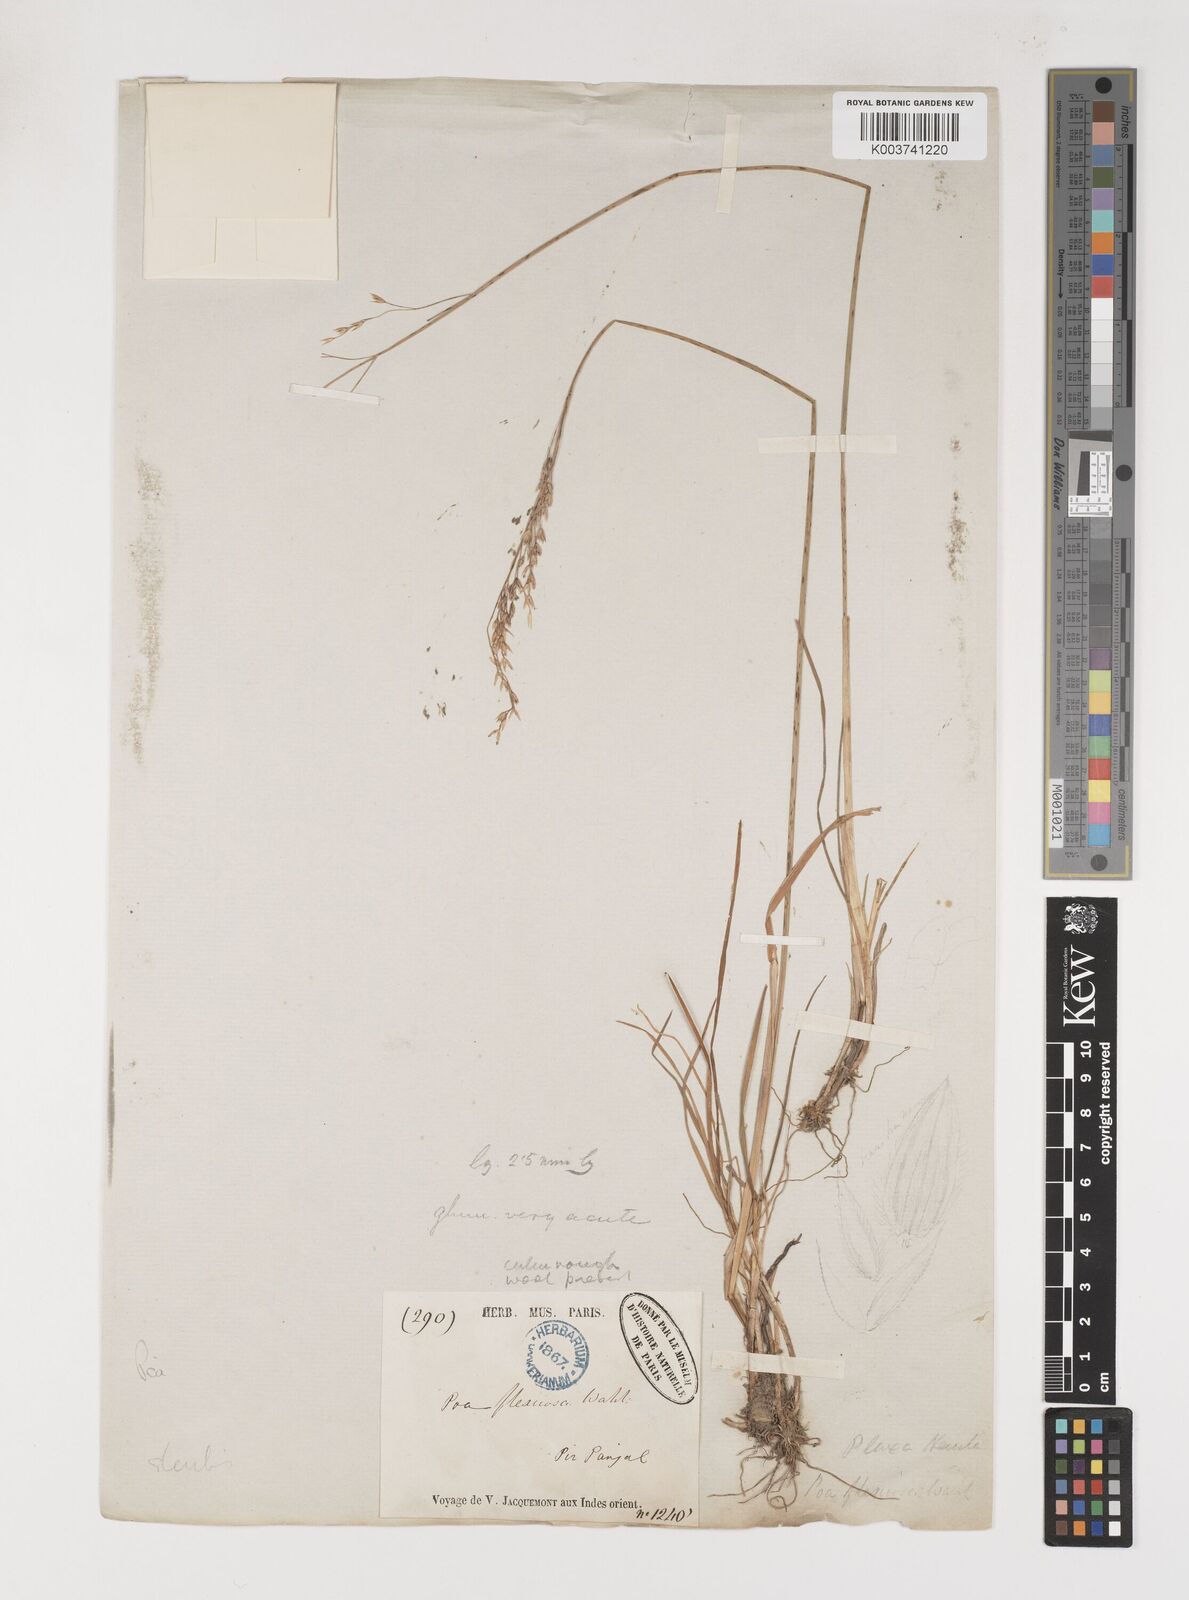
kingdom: Plantae
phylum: Tracheophyta
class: Liliopsida
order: Poales
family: Poaceae
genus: Poa
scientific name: Poa araratica
